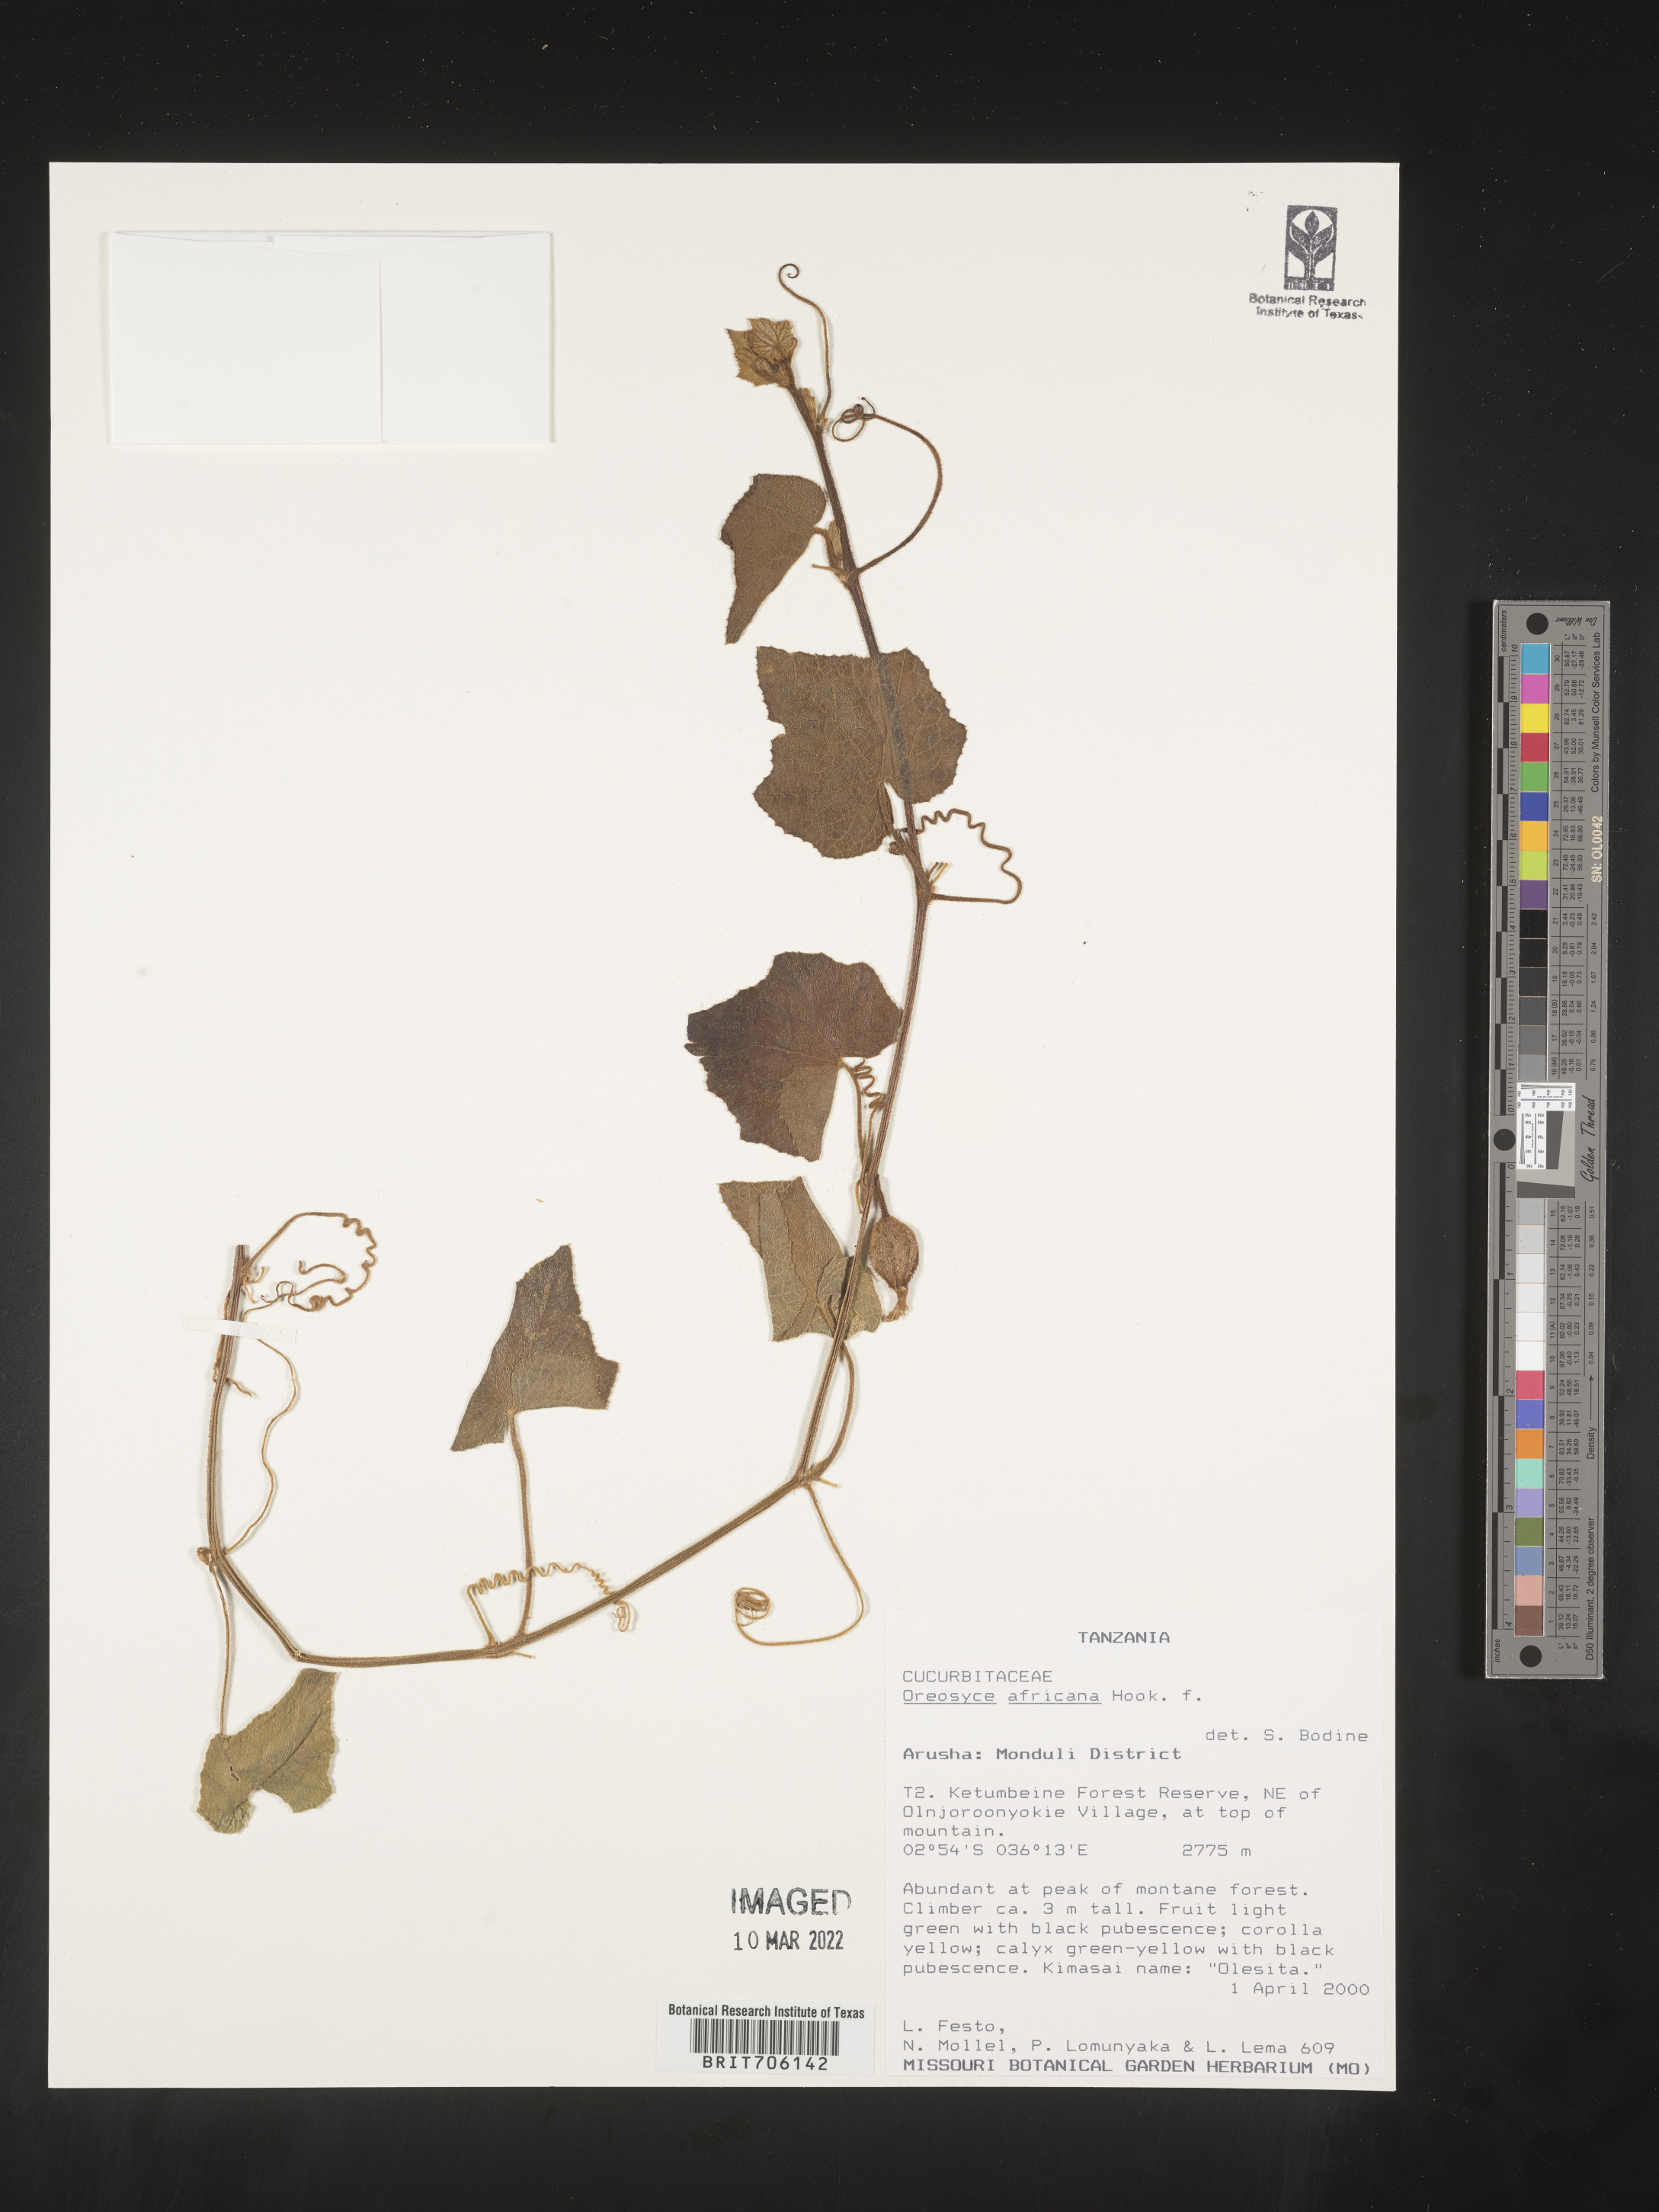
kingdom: Plantae
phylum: Tracheophyta
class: Magnoliopsida
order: Cucurbitales
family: Cucurbitaceae
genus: Oreosyce
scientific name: Oreosyce
